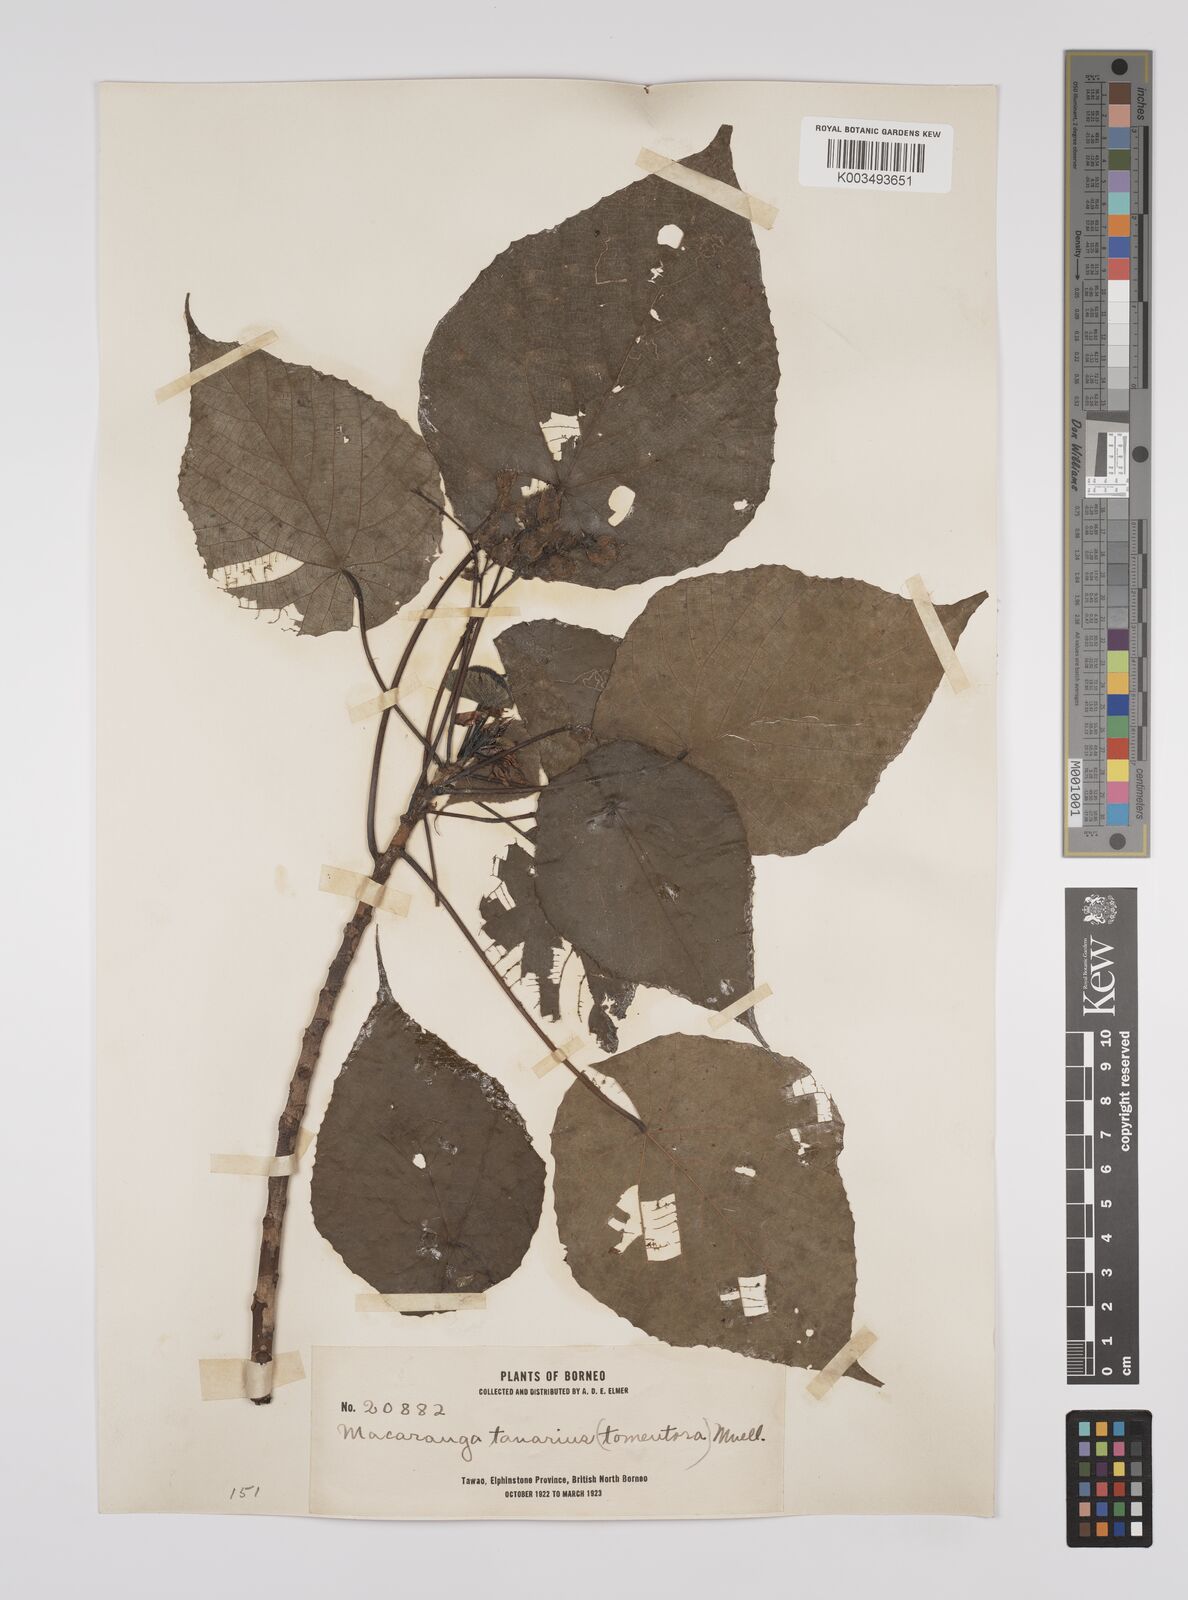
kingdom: Plantae
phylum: Tracheophyta
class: Magnoliopsida
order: Malpighiales
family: Euphorbiaceae
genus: Macaranga
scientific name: Macaranga tanarius
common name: Parasol leaf tree
